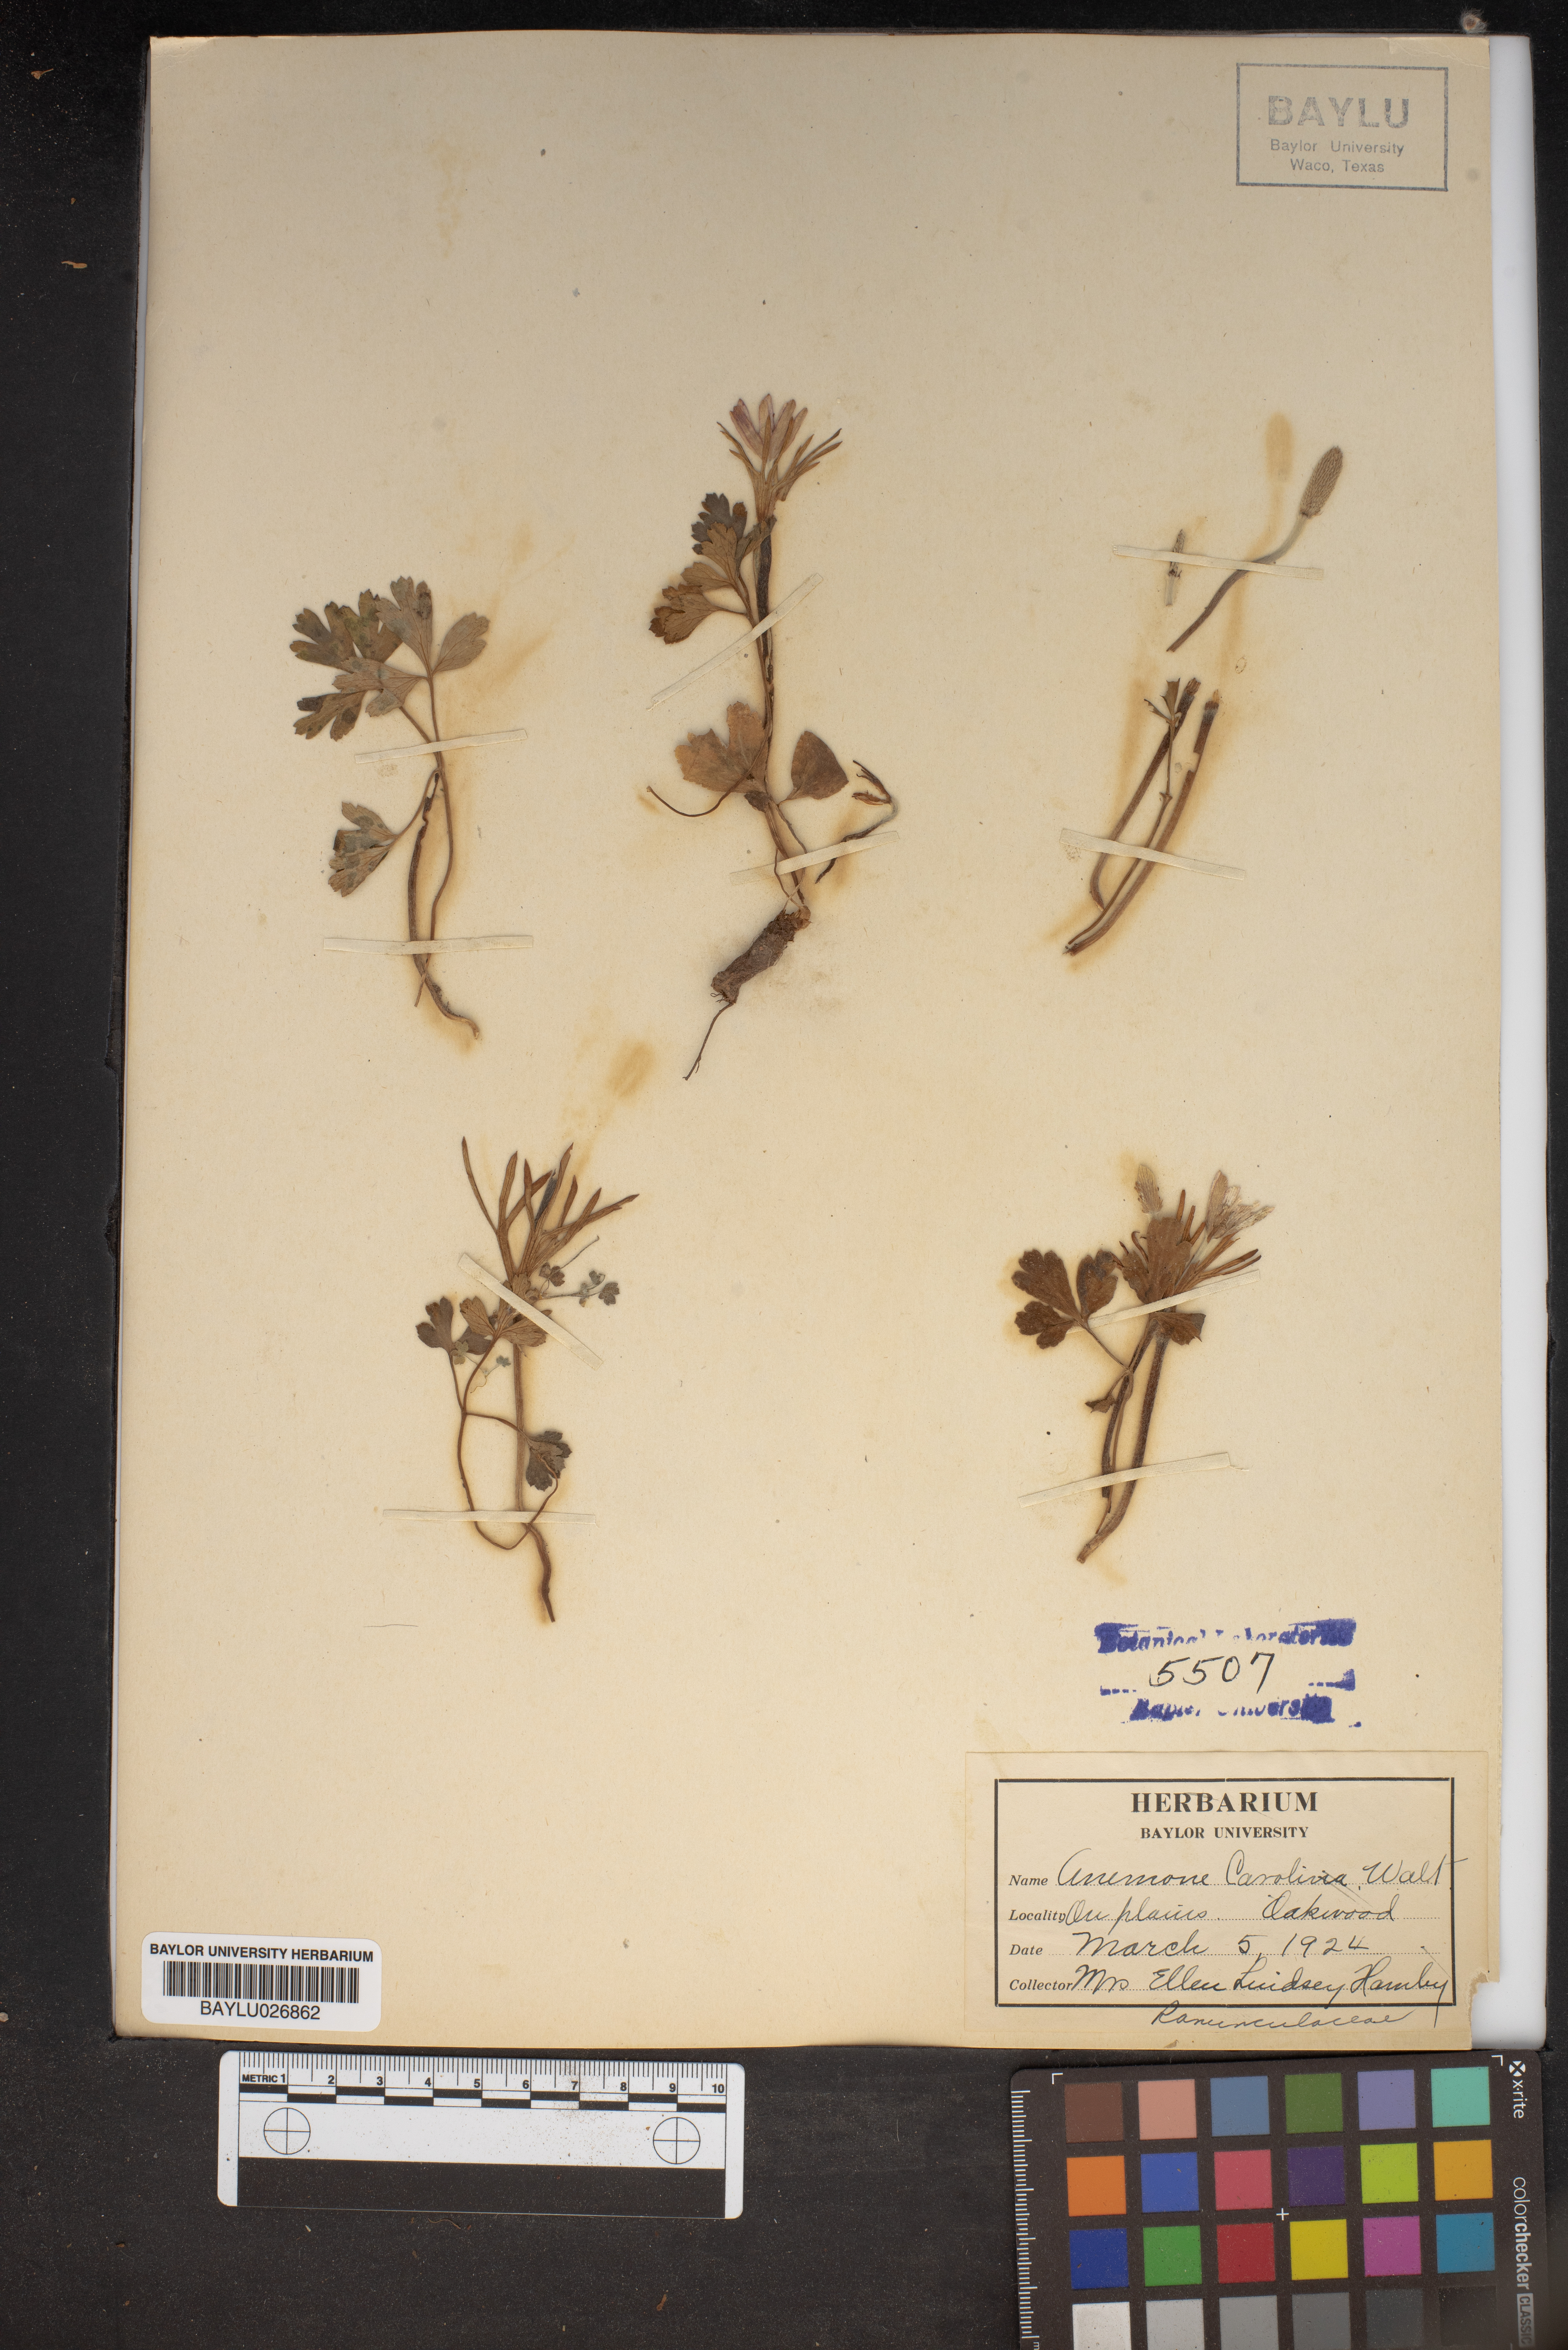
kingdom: Plantae
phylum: Tracheophyta
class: Magnoliopsida
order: Ranunculales
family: Ranunculaceae
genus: Anemone
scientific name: Anemone caroliniana
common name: Carolina anemone
